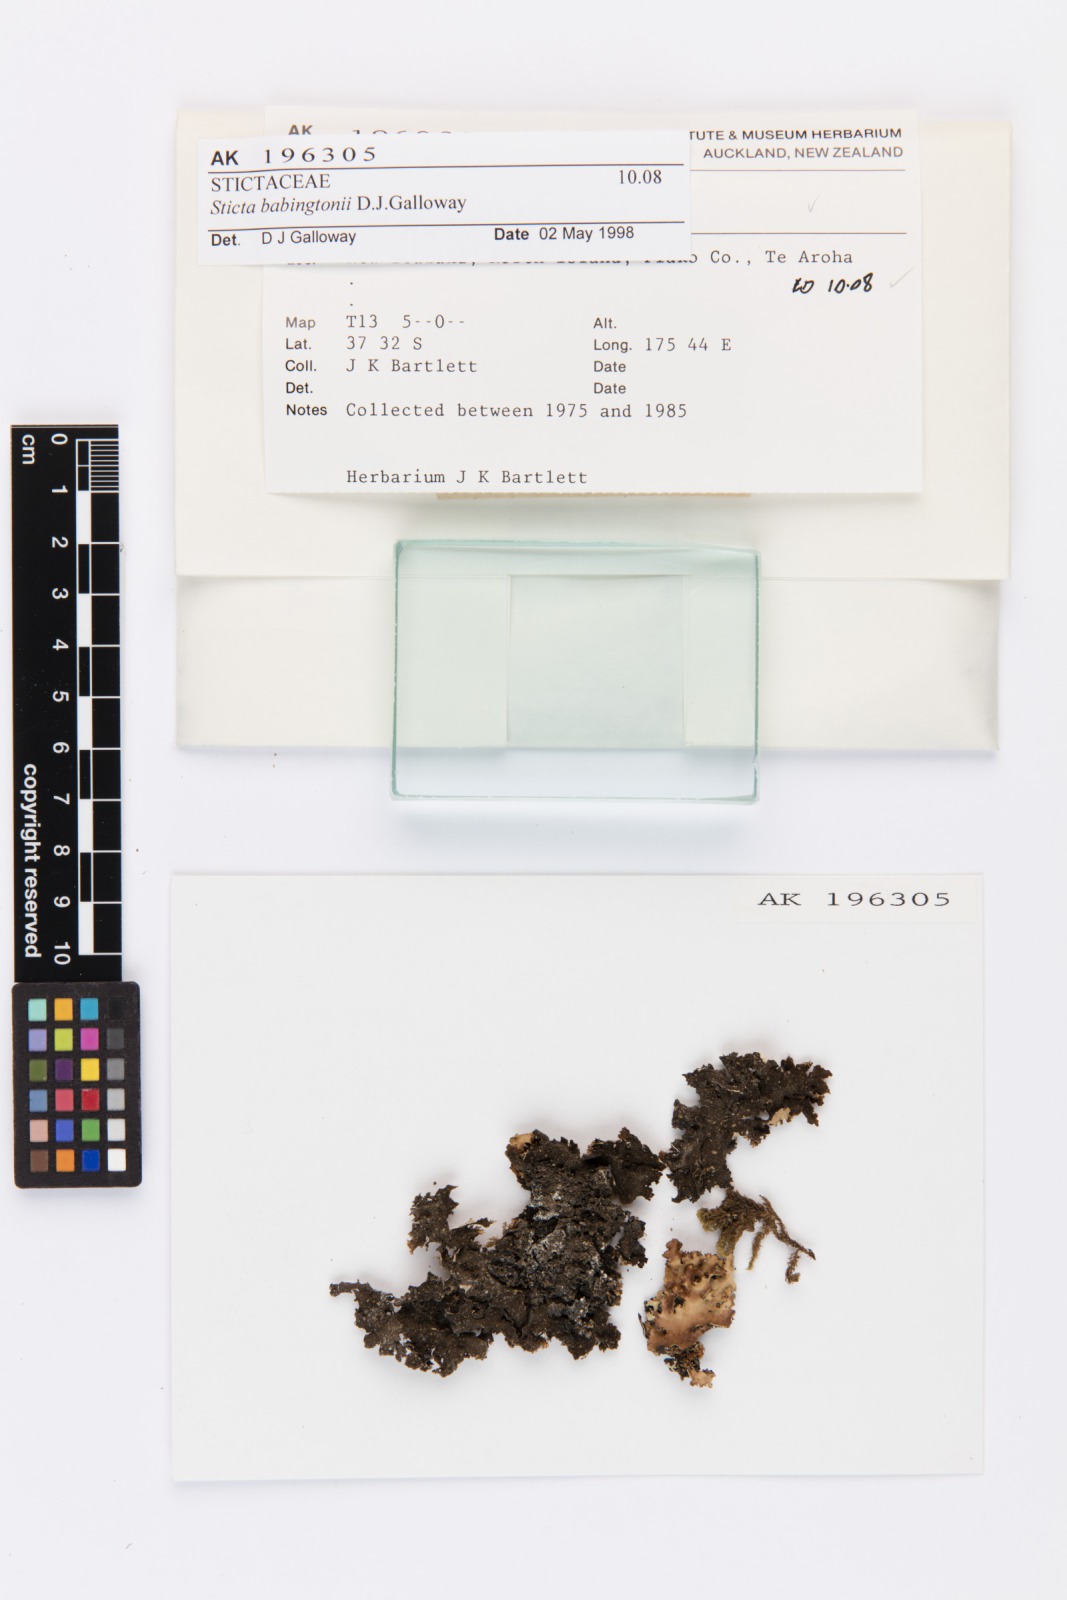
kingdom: Fungi
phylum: Ascomycota
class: Lecanoromycetes
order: Peltigerales
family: Lobariaceae
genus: Sticta
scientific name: Sticta babingtonii
